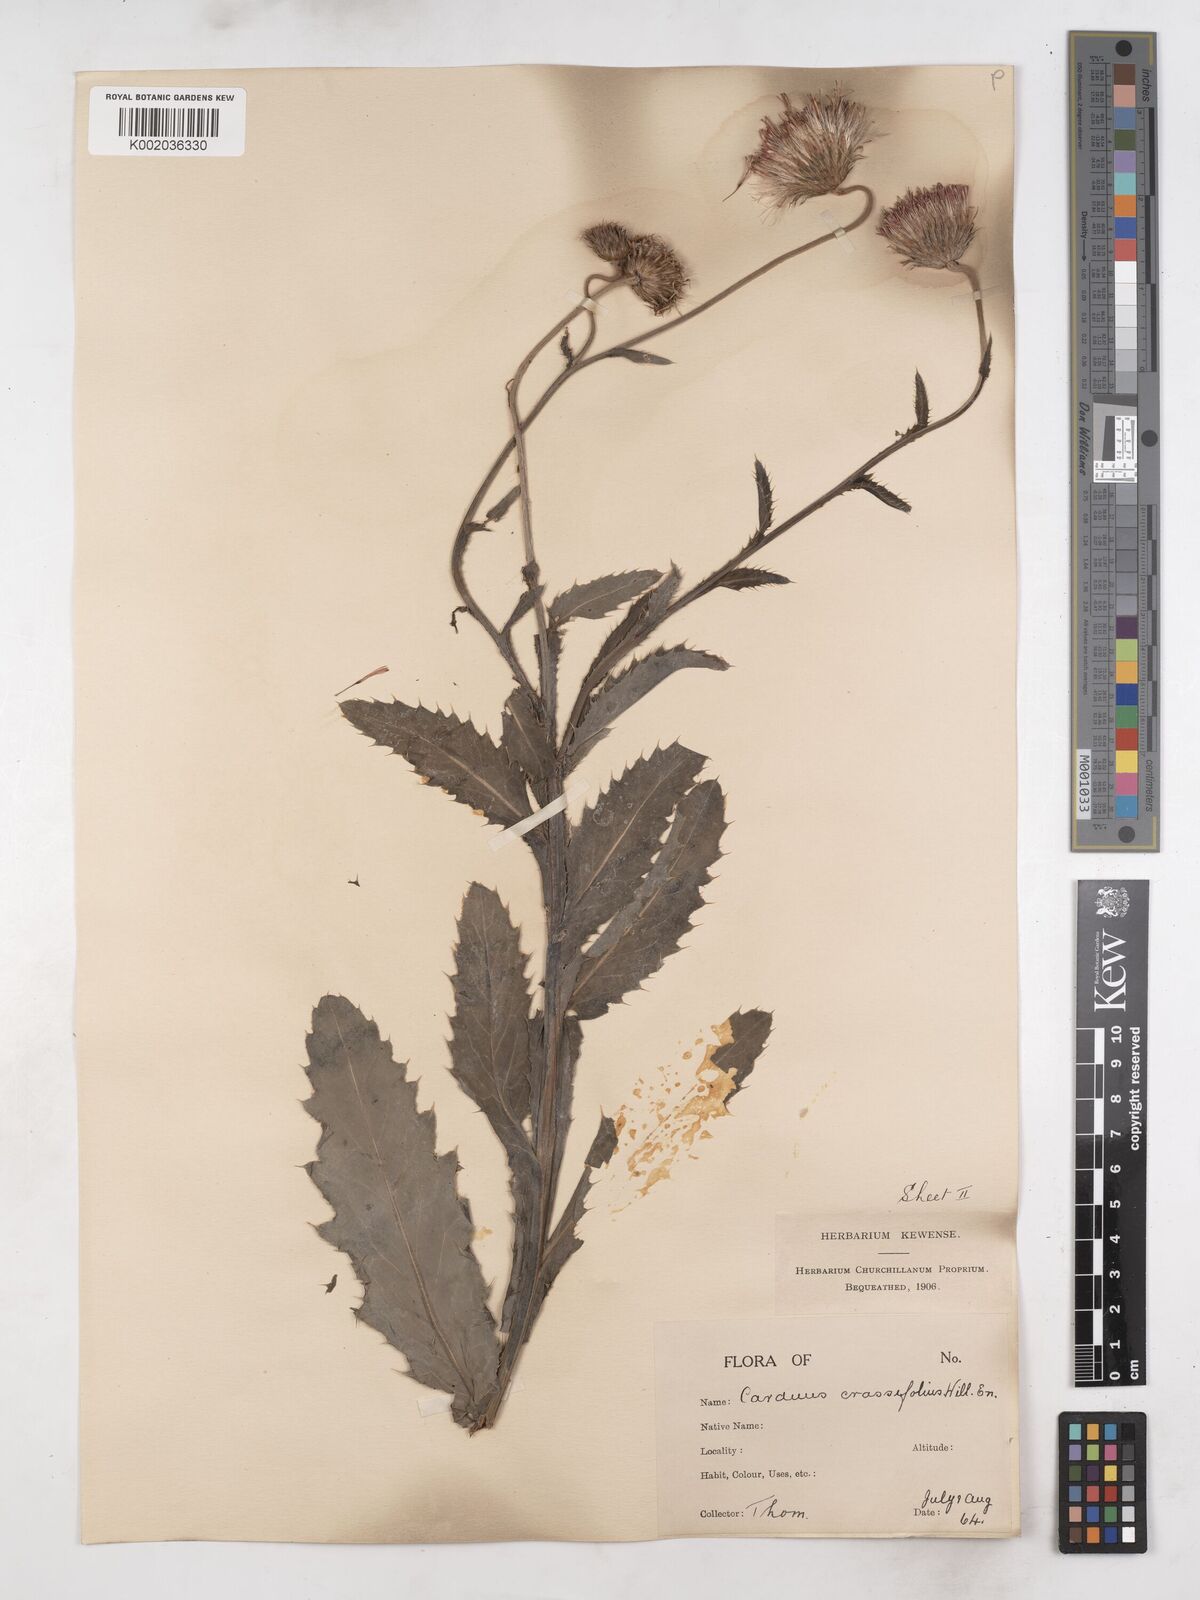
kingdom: Plantae
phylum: Tracheophyta
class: Magnoliopsida
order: Asterales
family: Asteraceae
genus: Carduus
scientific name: Carduus defloratus
